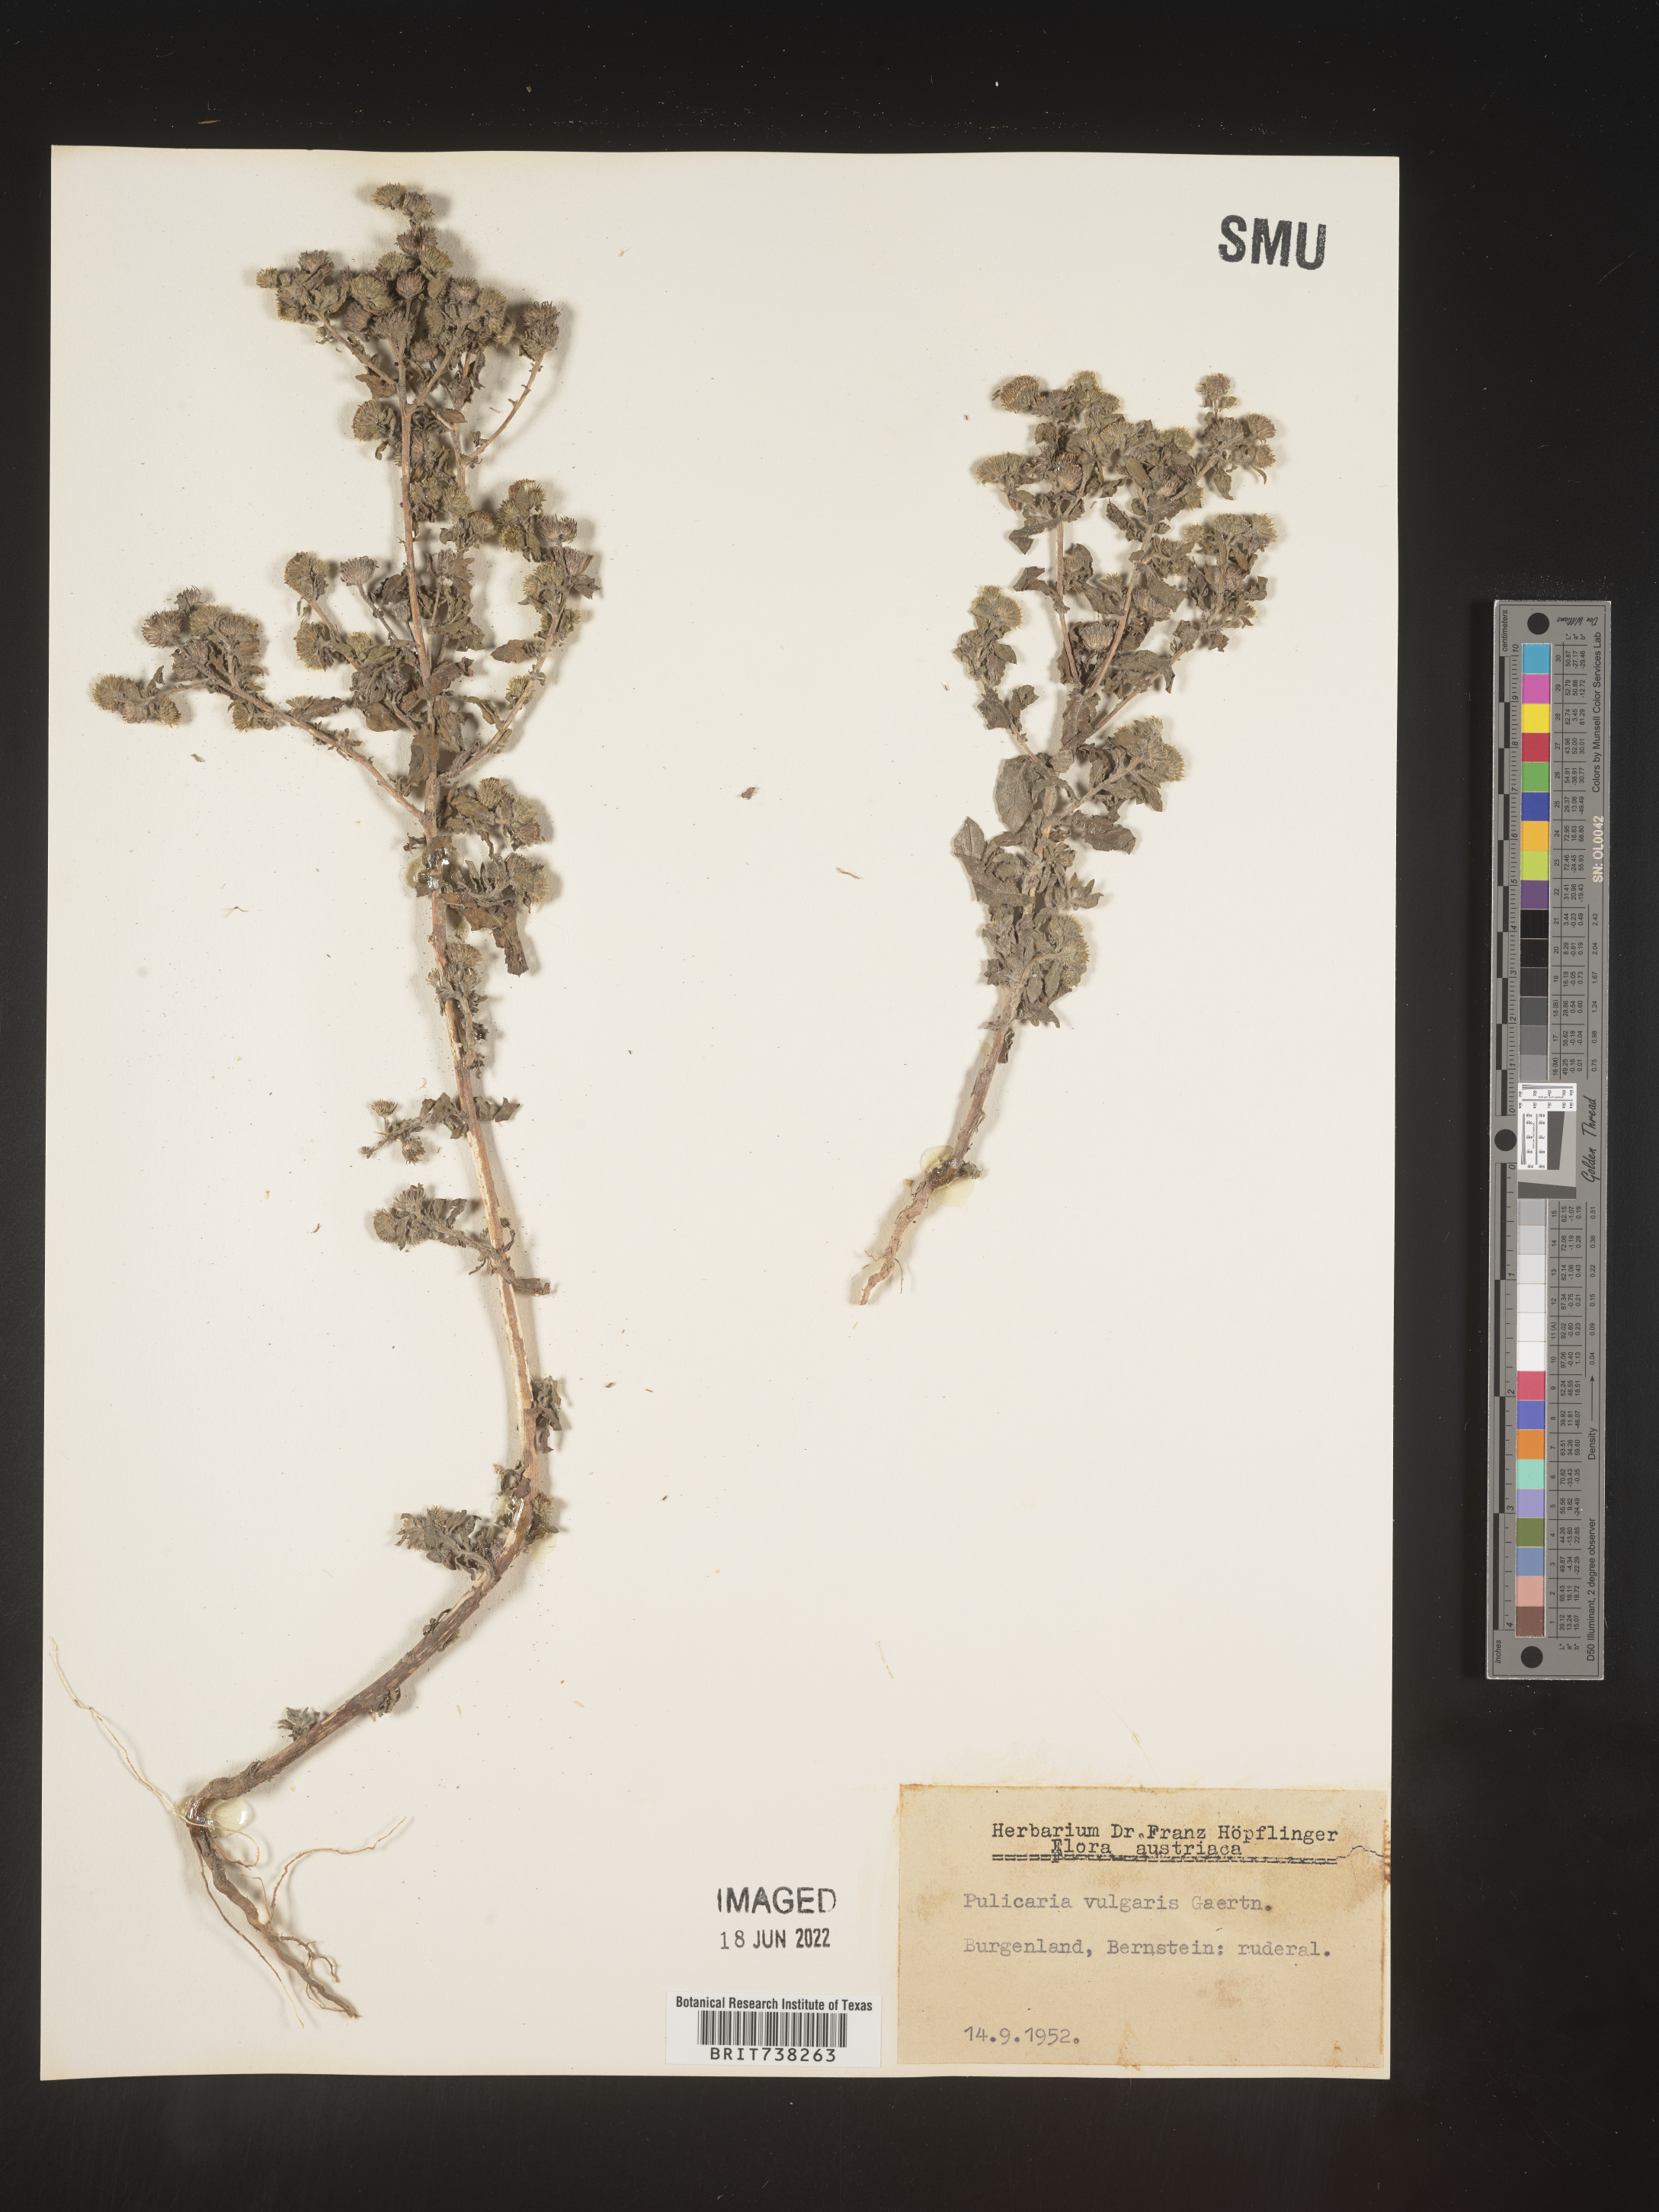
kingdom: Plantae
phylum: Tracheophyta
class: Magnoliopsida
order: Asterales
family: Asteraceae
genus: Pulicaria
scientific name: Pulicaria
